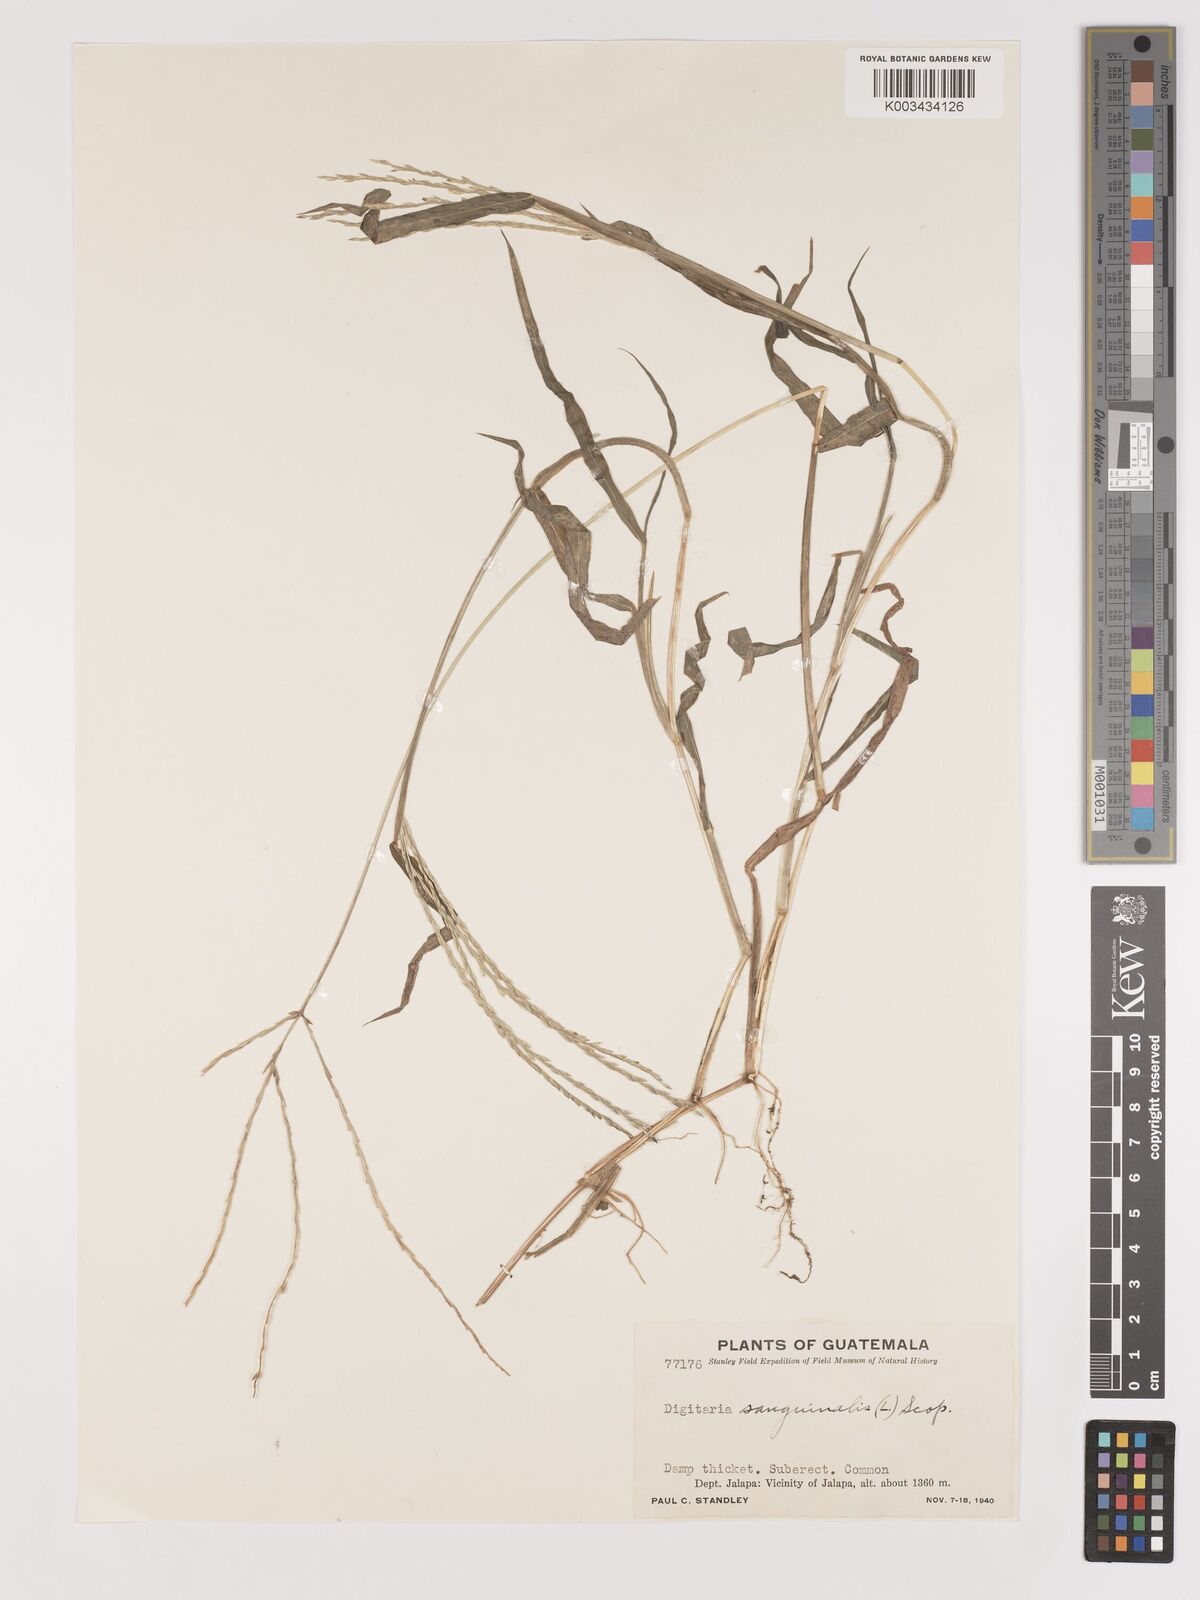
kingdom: Plantae
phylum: Tracheophyta
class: Liliopsida
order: Poales
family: Poaceae
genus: Digitaria
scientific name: Digitaria ciliaris
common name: Tropical finger-grass
